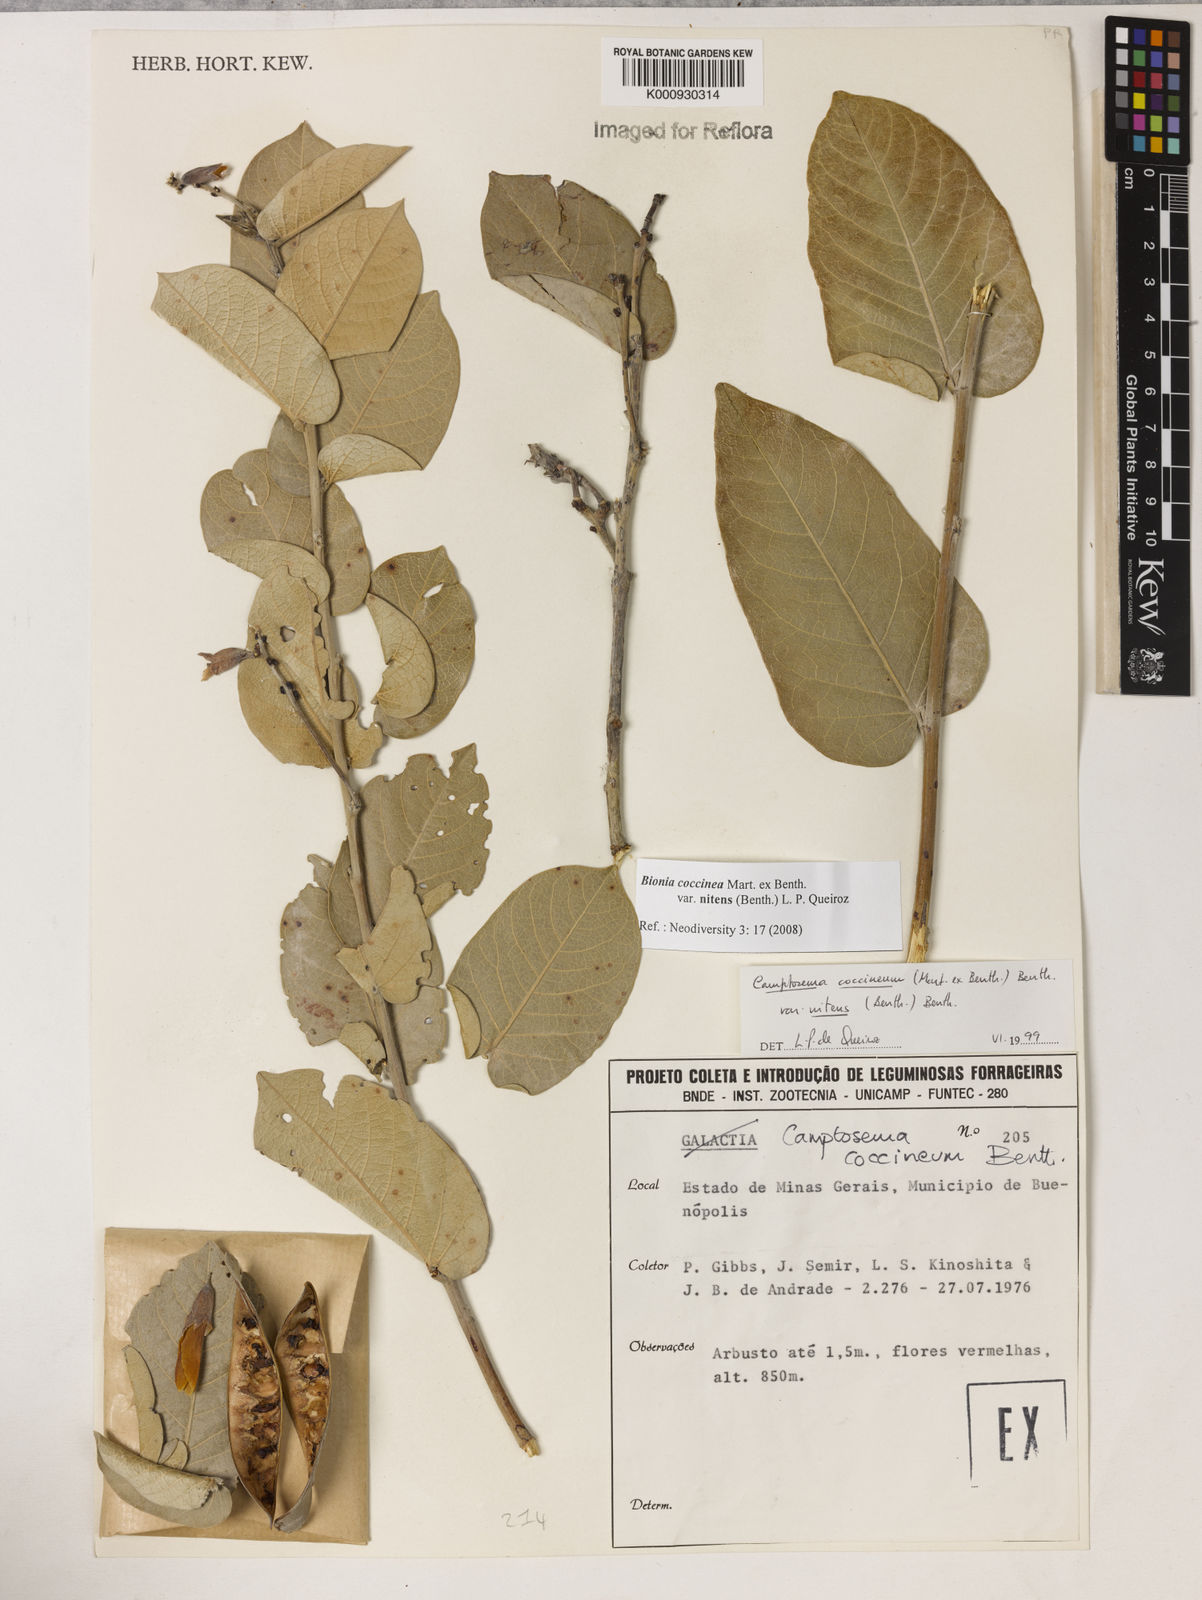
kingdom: Plantae
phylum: Tracheophyta
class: Magnoliopsida
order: Fabales
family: Fabaceae
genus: Camptosema
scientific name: Camptosema coccineum
